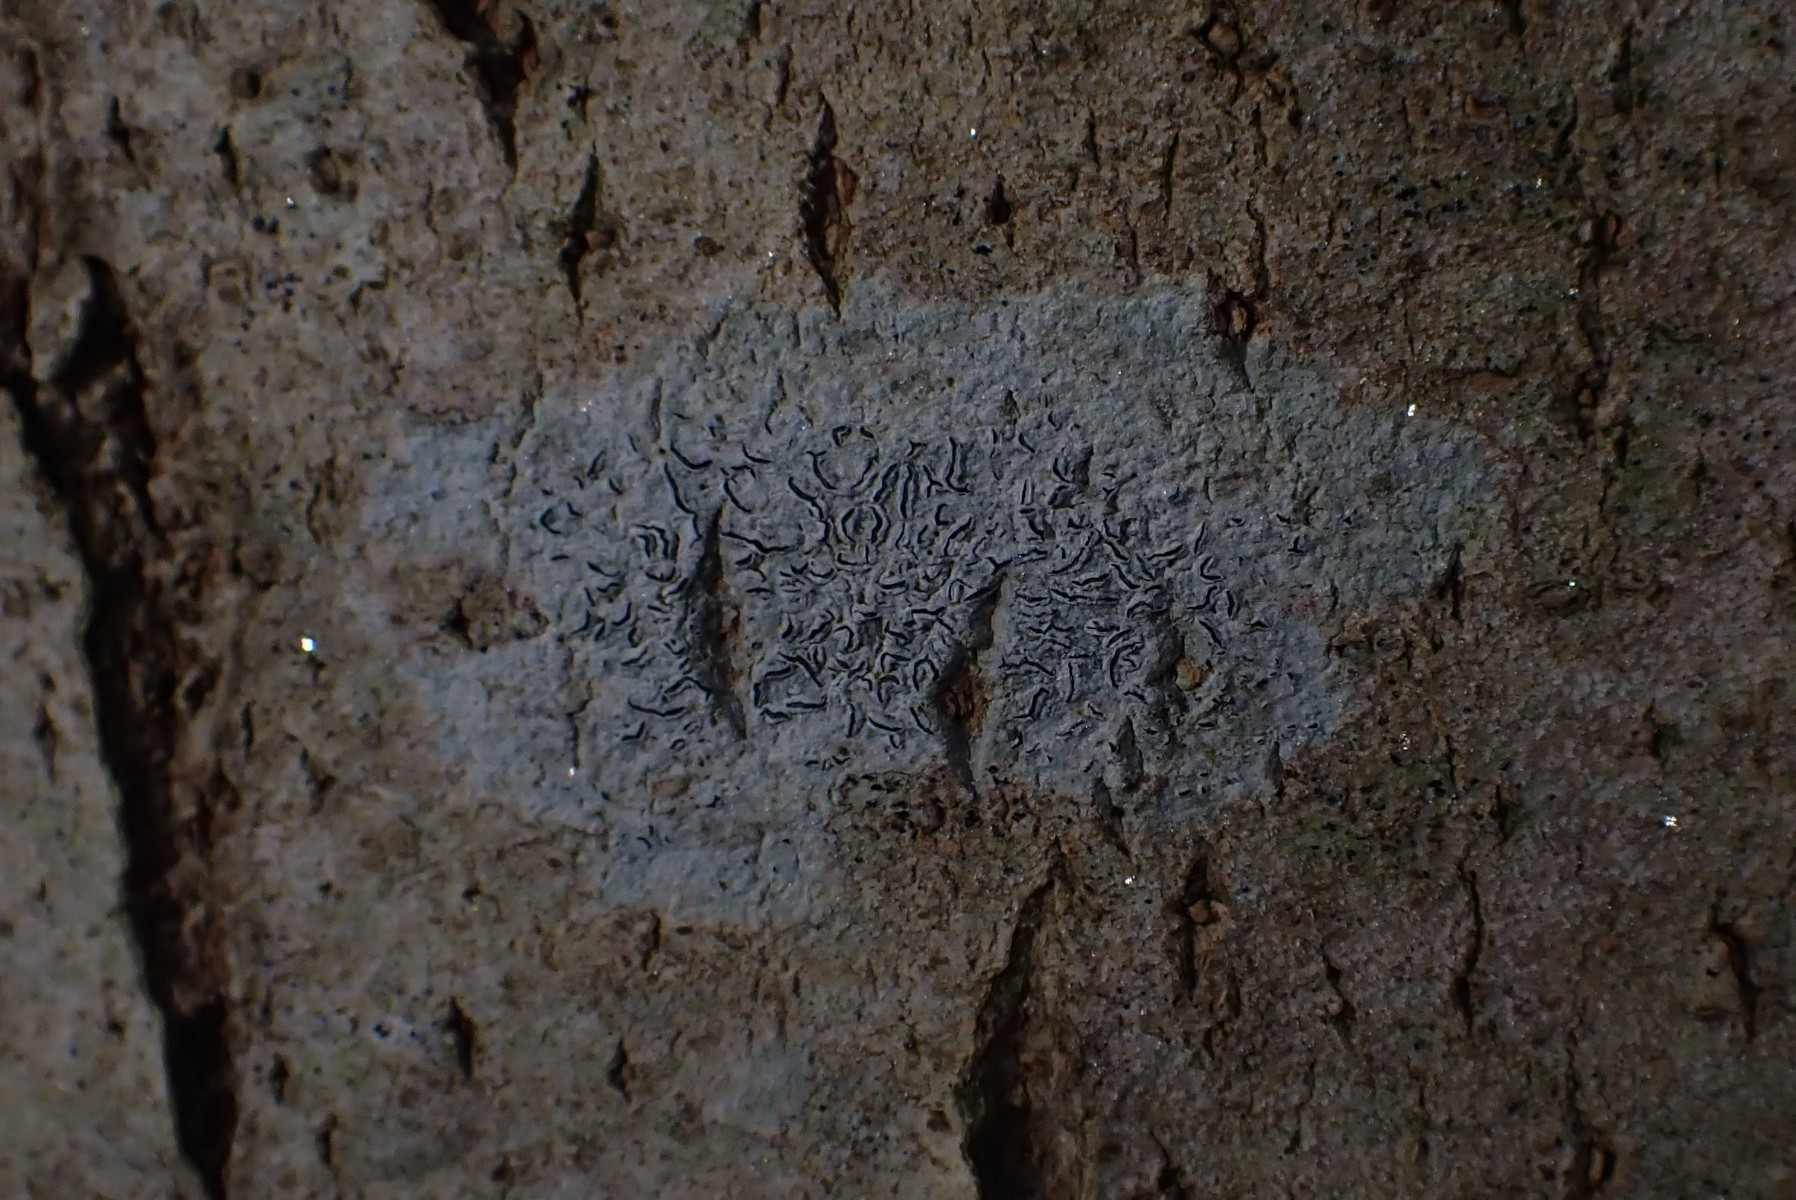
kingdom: Fungi
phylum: Ascomycota
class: Lecanoromycetes
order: Ostropales
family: Graphidaceae
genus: Graphis
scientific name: Graphis scripta
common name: almindelig skriftlav
